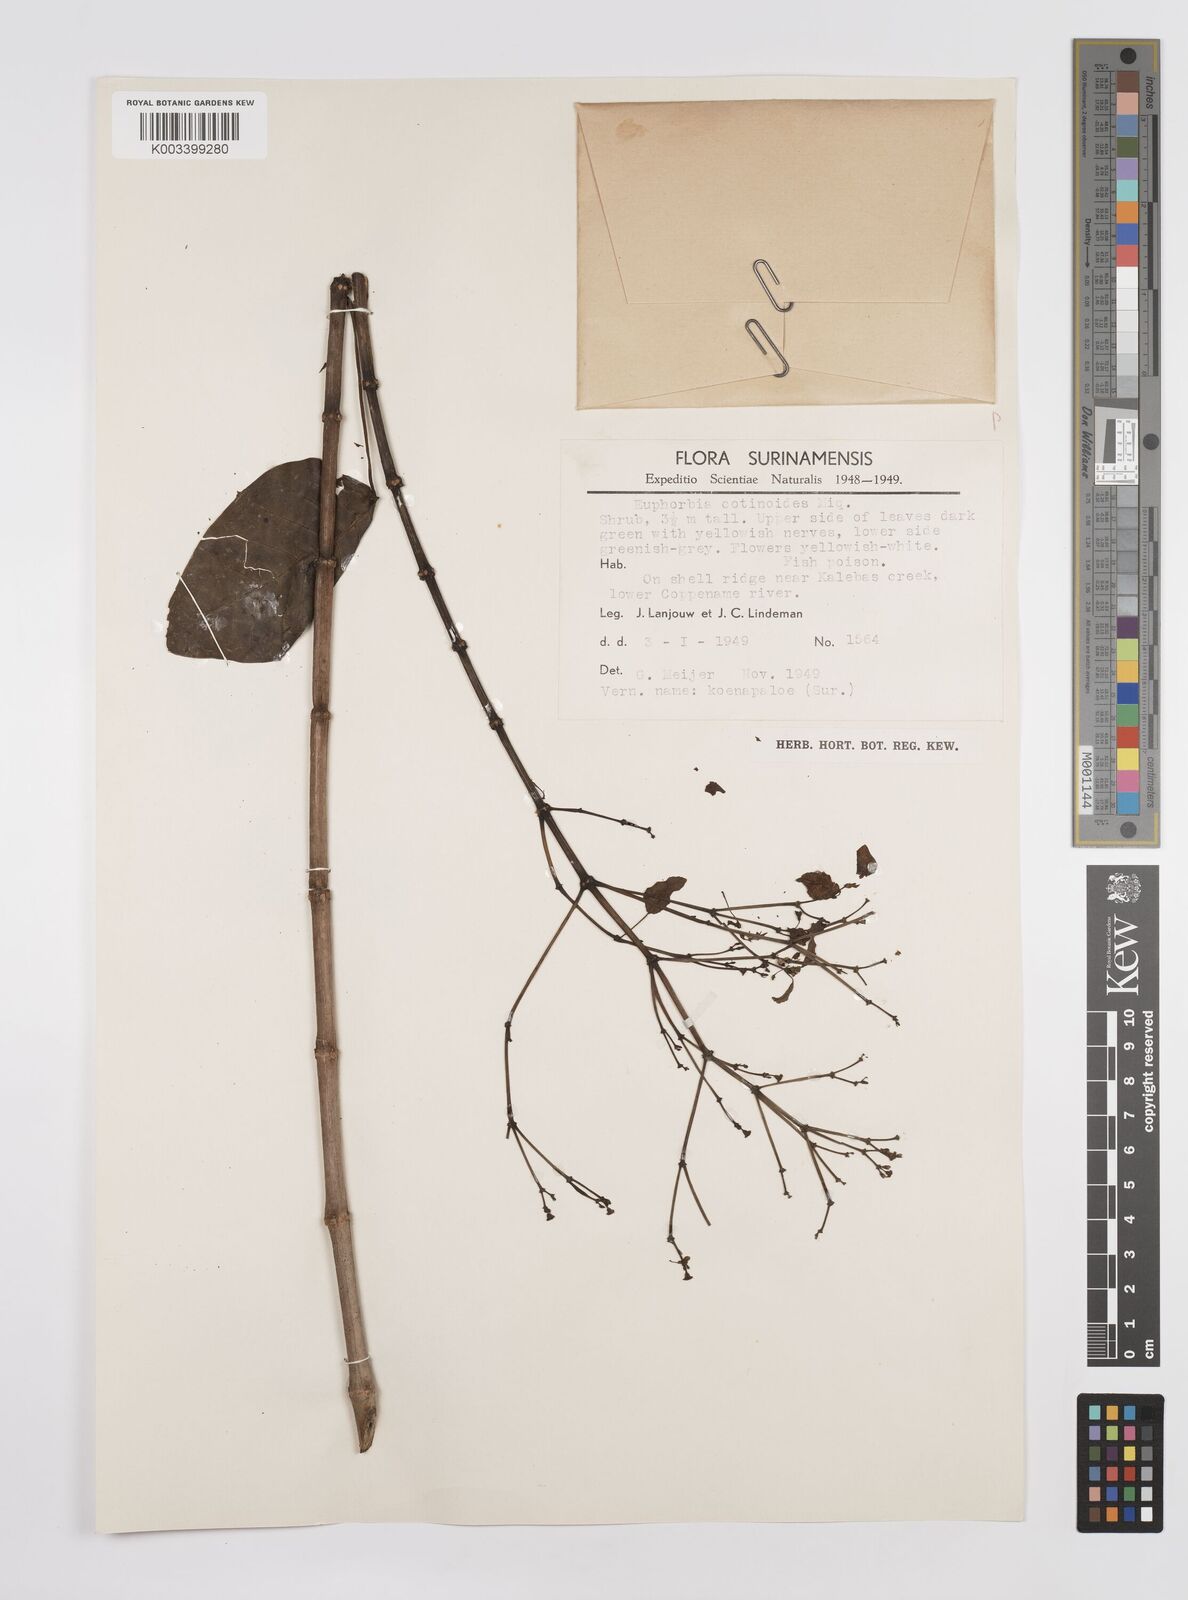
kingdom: Plantae
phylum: Tracheophyta
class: Magnoliopsida
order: Malpighiales
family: Euphorbiaceae
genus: Euphorbia
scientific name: Euphorbia cotinifolia
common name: Tropical smokebush
